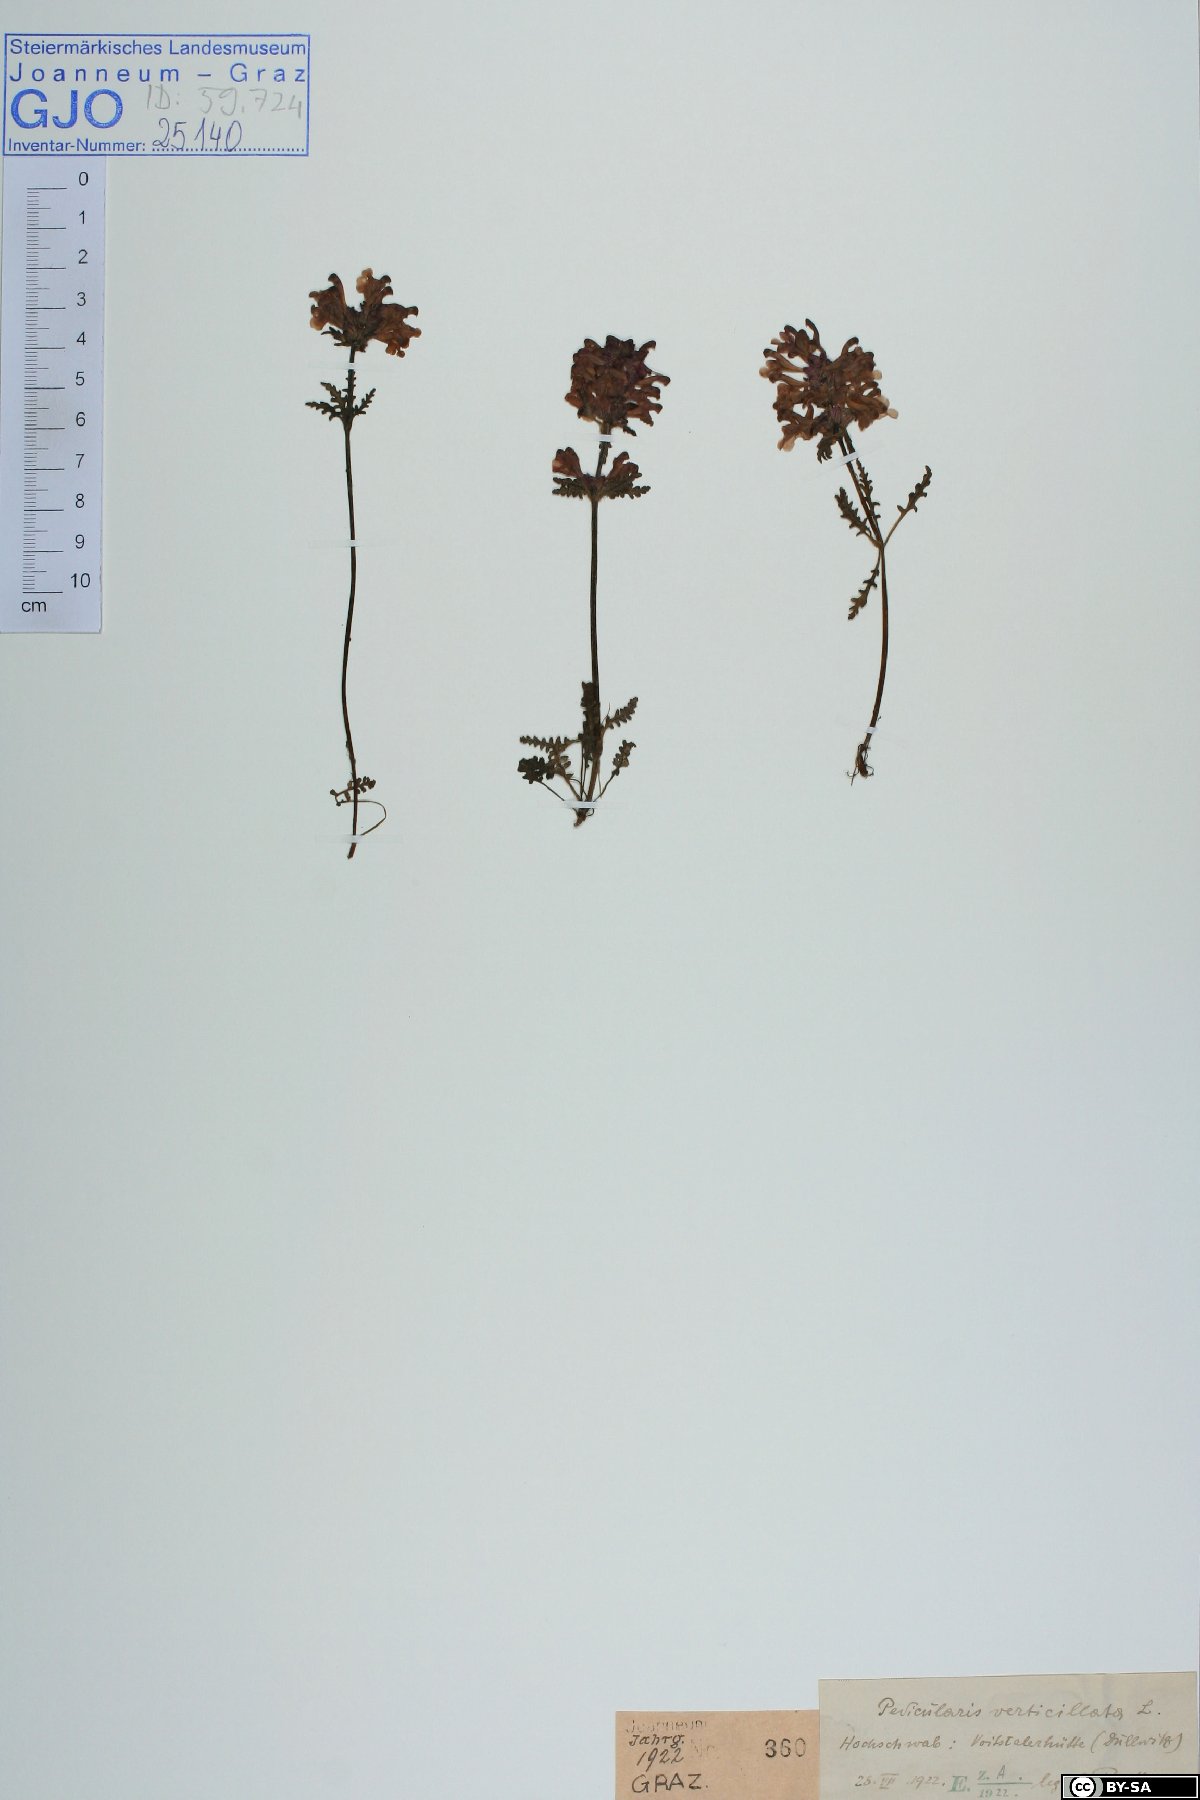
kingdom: Plantae
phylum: Tracheophyta
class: Magnoliopsida
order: Lamiales
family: Orobanchaceae
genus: Pedicularis
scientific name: Pedicularis verticillata
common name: Whorled lousewort
